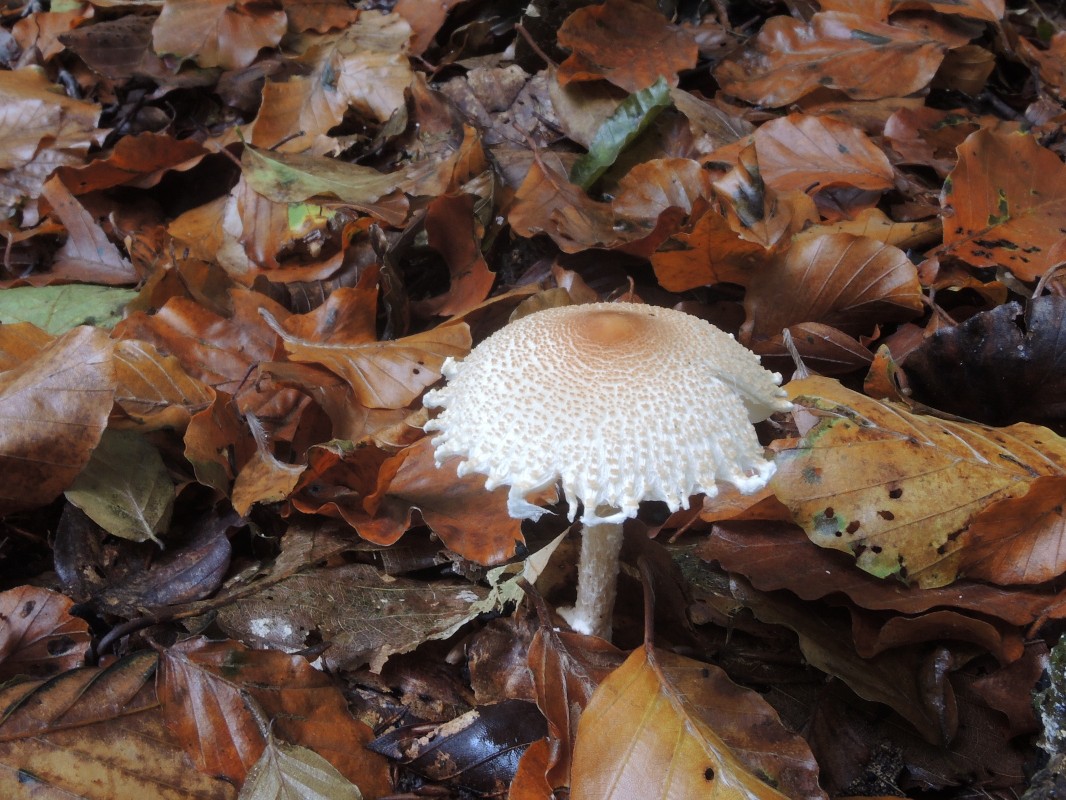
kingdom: Fungi
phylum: Basidiomycota
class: Agaricomycetes
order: Agaricales
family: Agaricaceae
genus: Lepiota
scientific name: Lepiota clypeolaria
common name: flosset parasolhat
